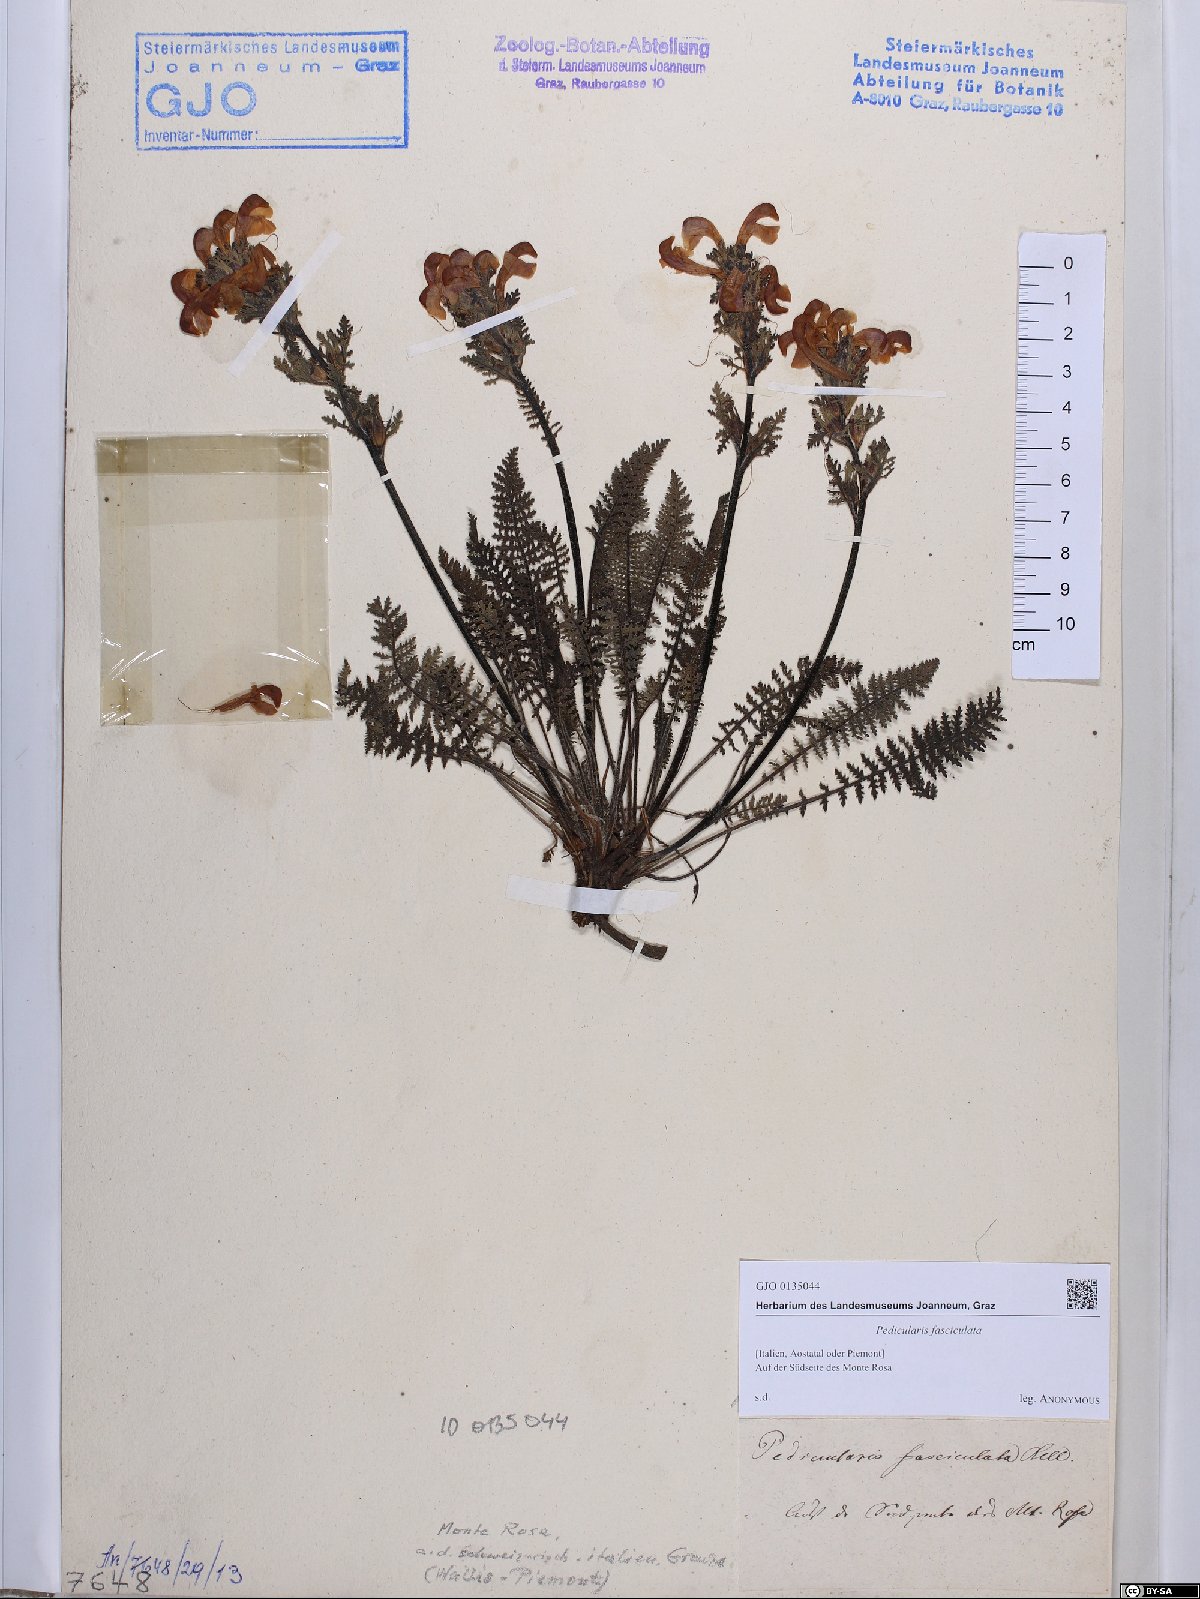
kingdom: Plantae
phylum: Tracheophyta
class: Magnoliopsida
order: Lamiales
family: Orobanchaceae
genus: Pedicularis
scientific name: Pedicularis gyroflexa
